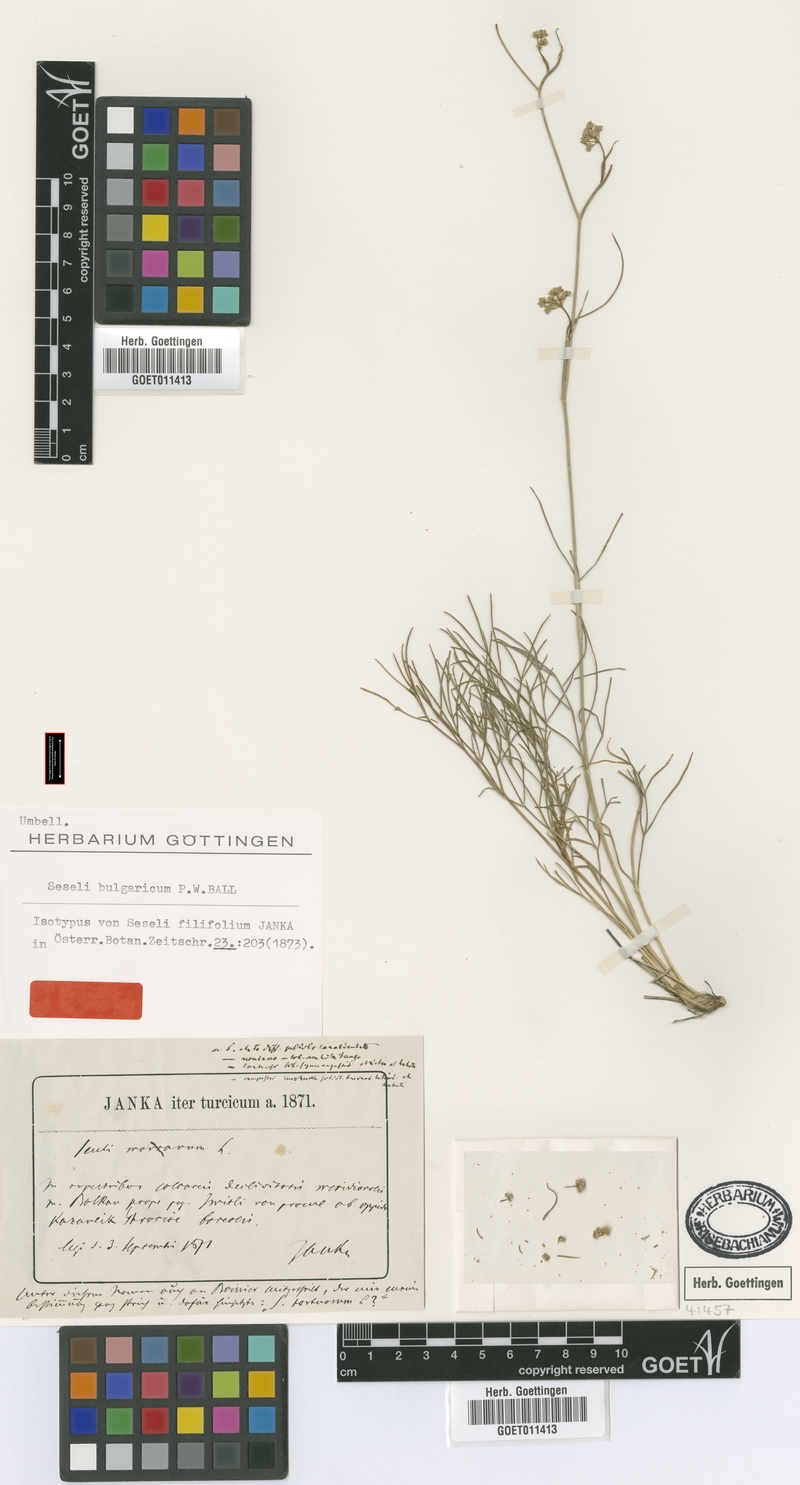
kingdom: Plantae
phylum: Tracheophyta
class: Magnoliopsida
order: Apiales
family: Apiaceae
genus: Seseli
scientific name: Seseli bulgaricum
